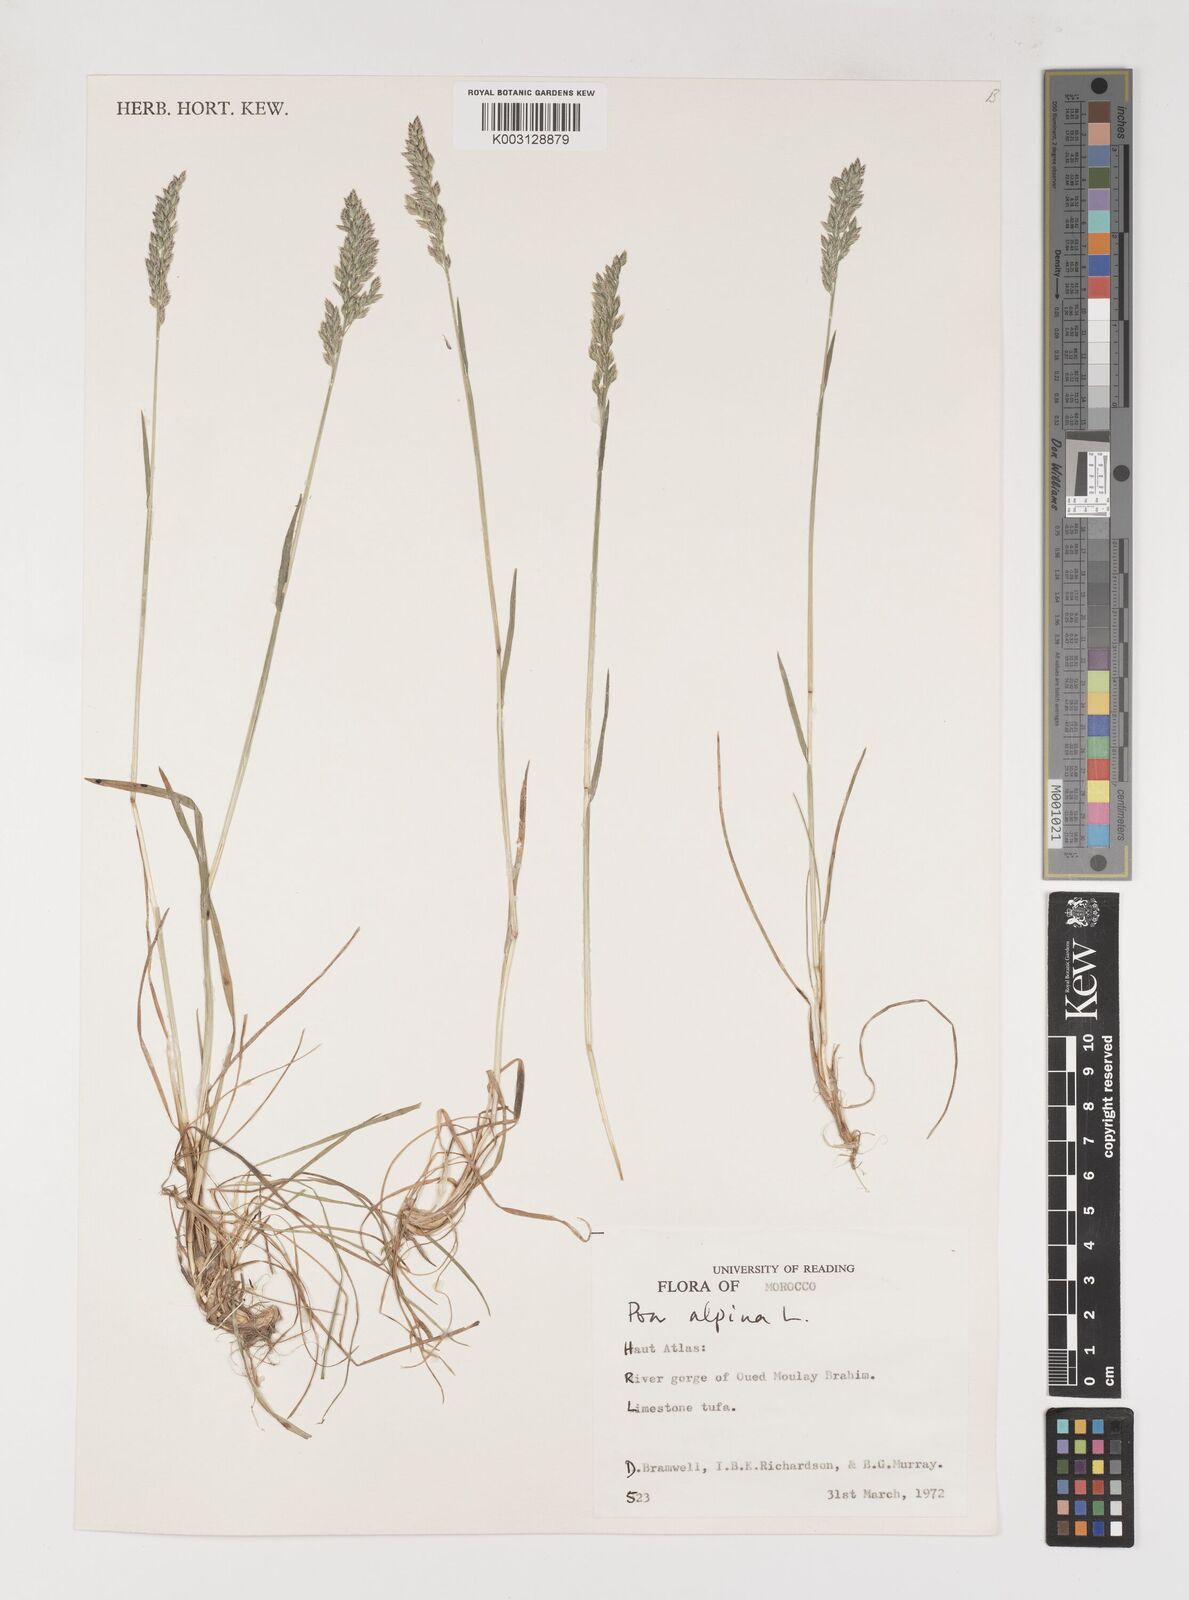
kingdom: Plantae
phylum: Tracheophyta
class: Liliopsida
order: Poales
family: Poaceae
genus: Poa
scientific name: Poa alpina
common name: Alpine bluegrass
